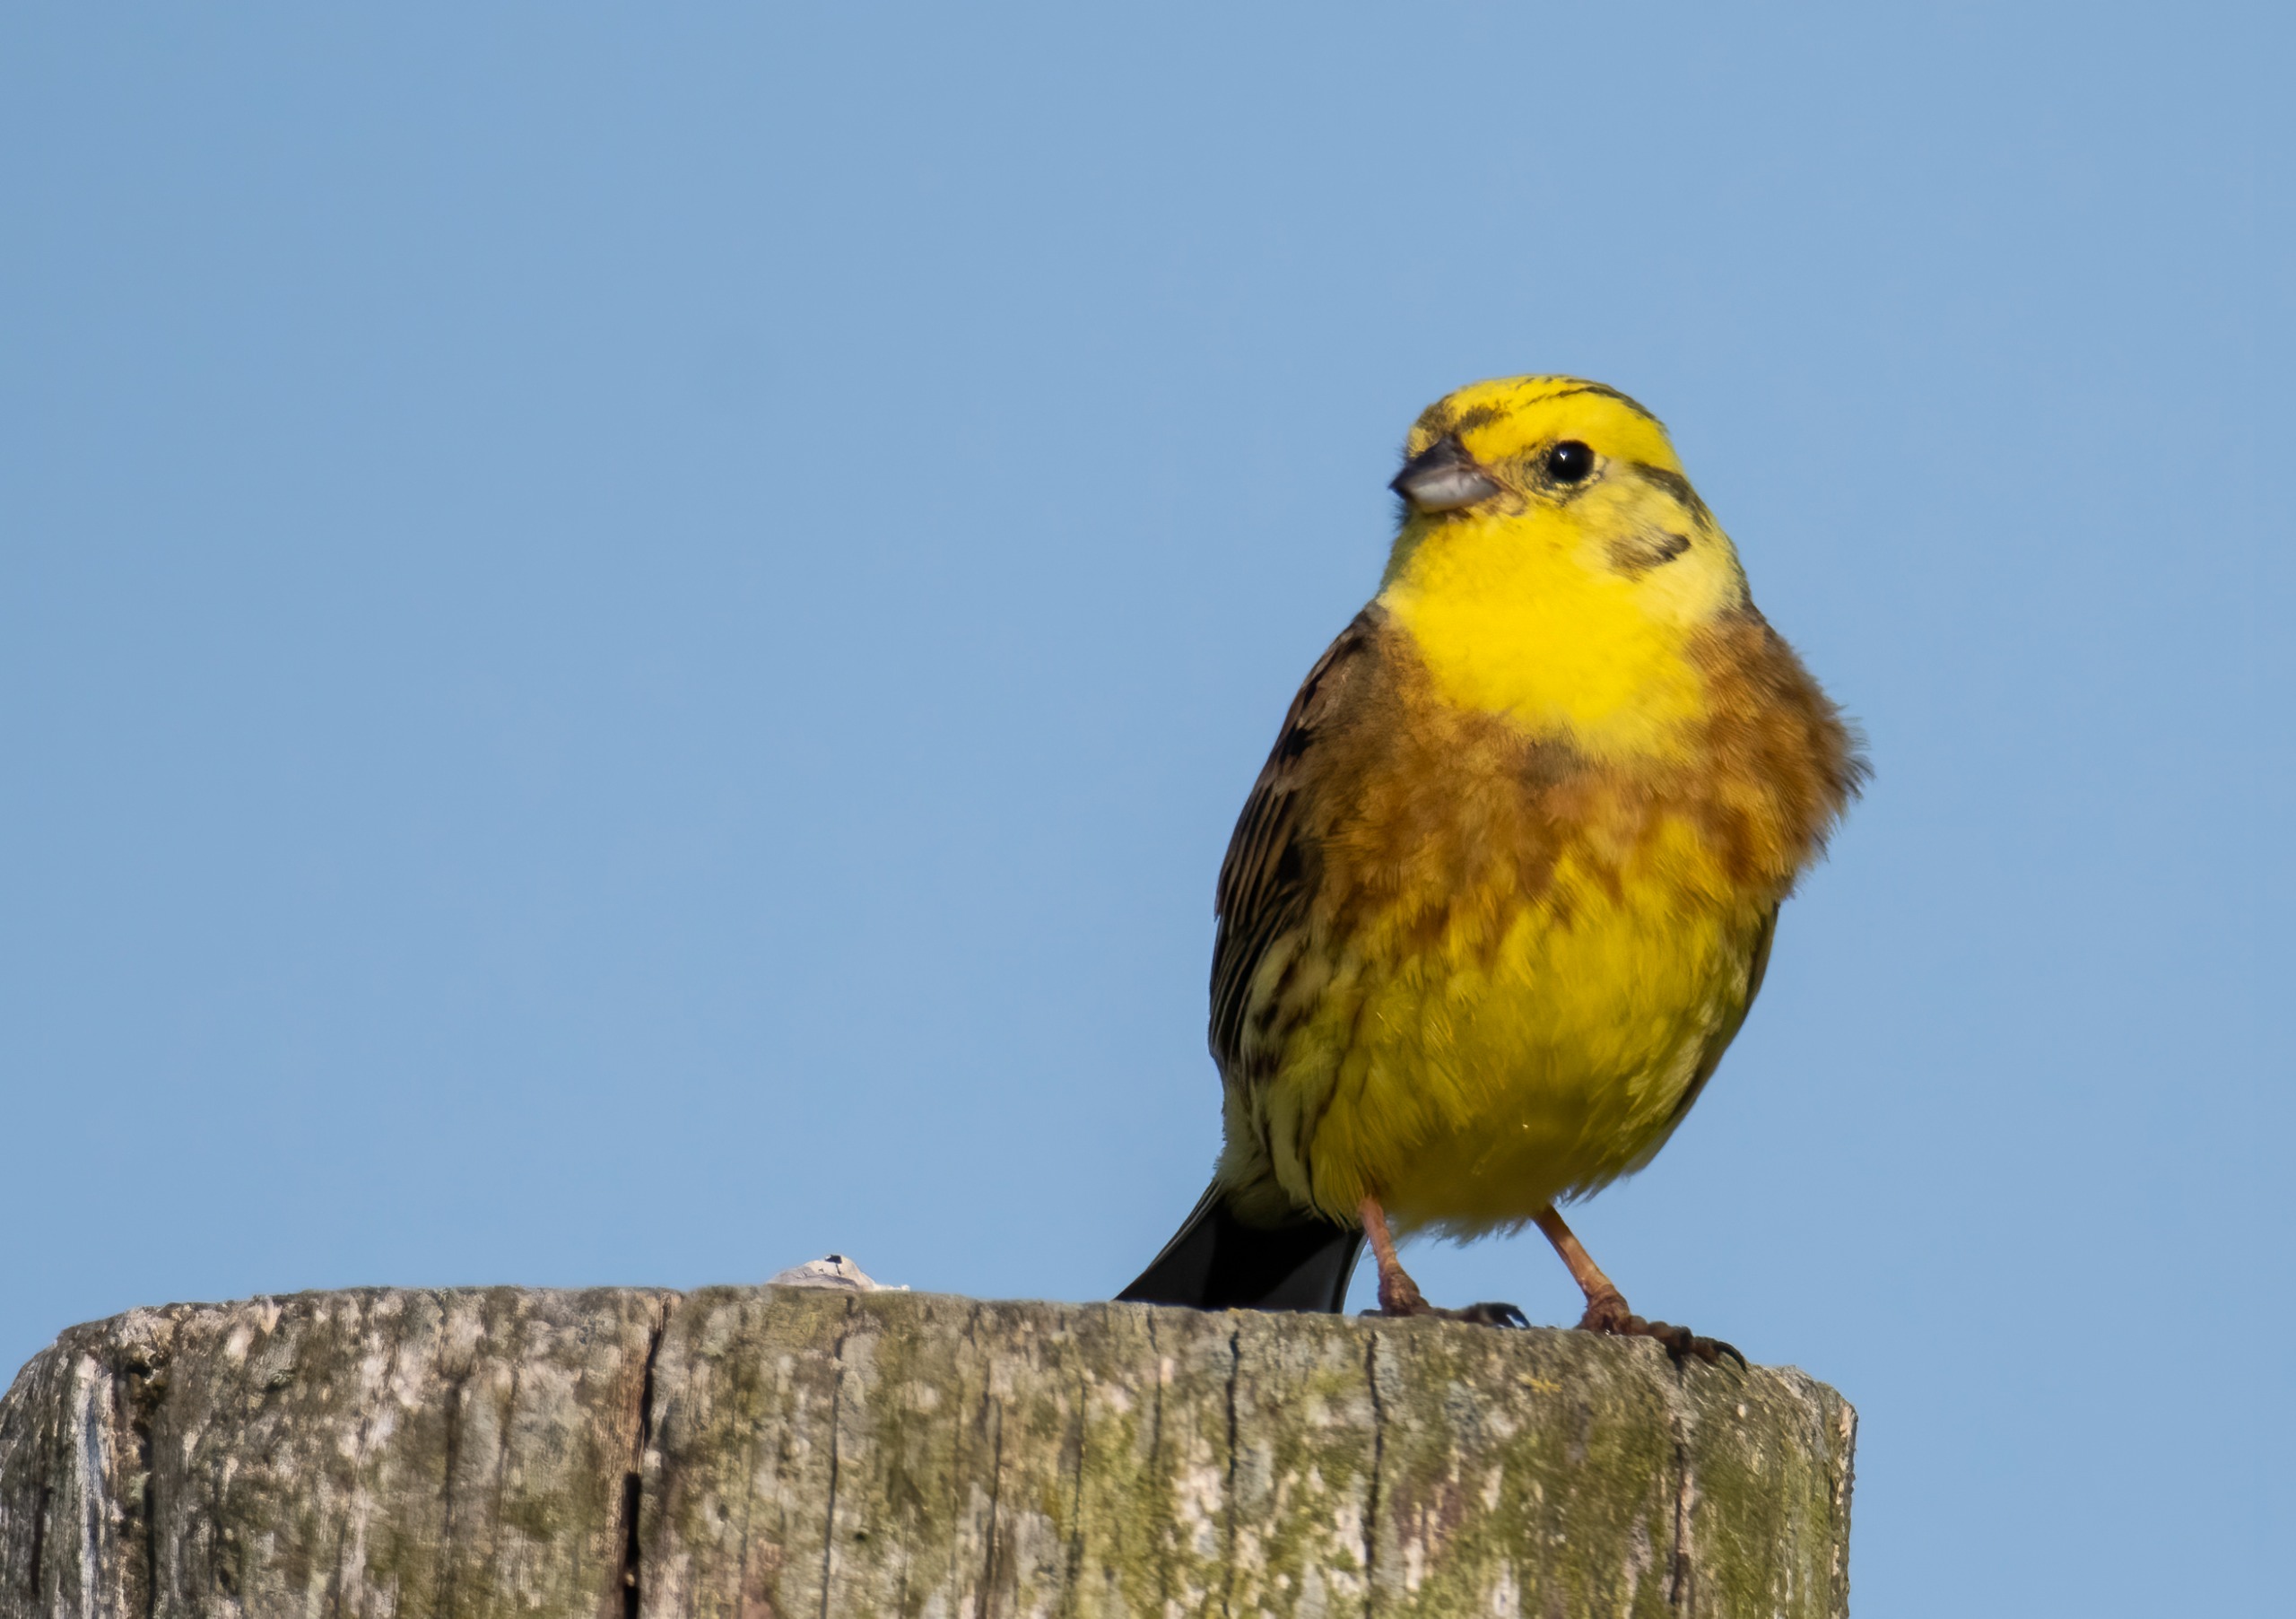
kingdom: Animalia
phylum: Chordata
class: Aves
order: Passeriformes
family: Emberizidae
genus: Emberiza
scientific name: Emberiza citrinella
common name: Gulspurv
